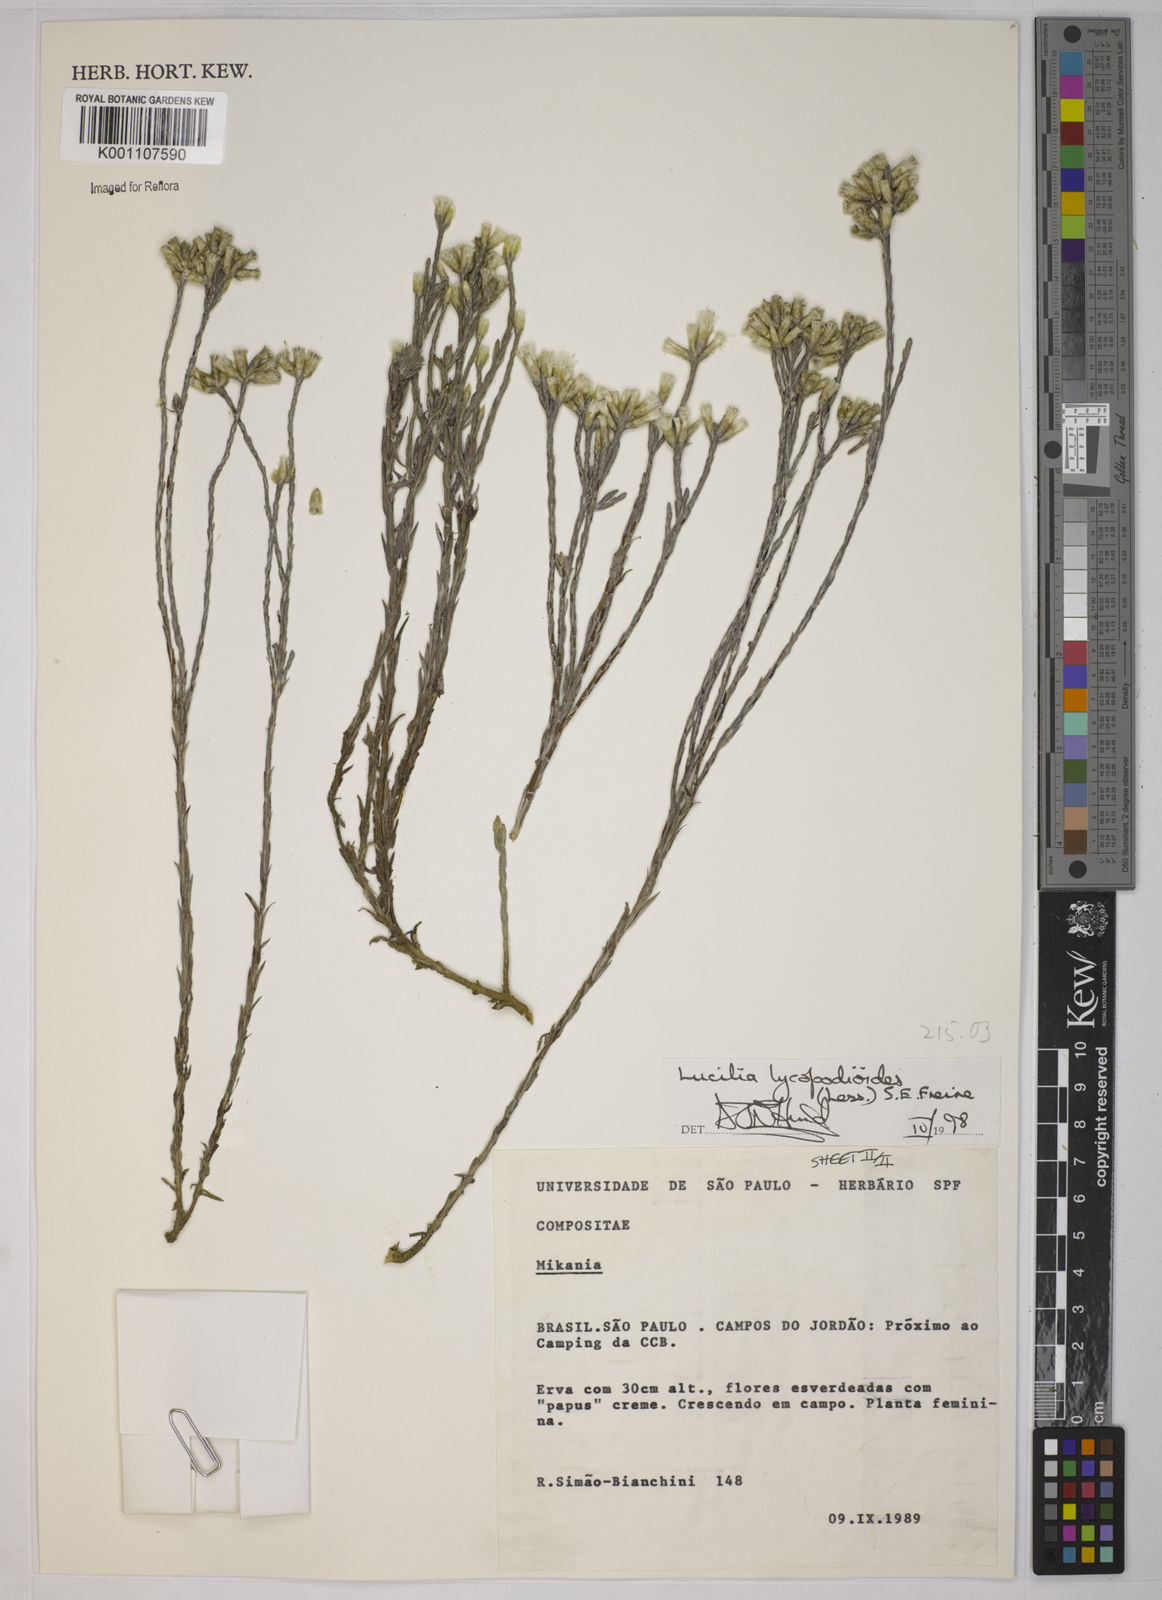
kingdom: Plantae
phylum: Tracheophyta
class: Magnoliopsida
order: Asterales
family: Asteraceae
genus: Lucilia
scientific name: Lucilia lycopodioides
